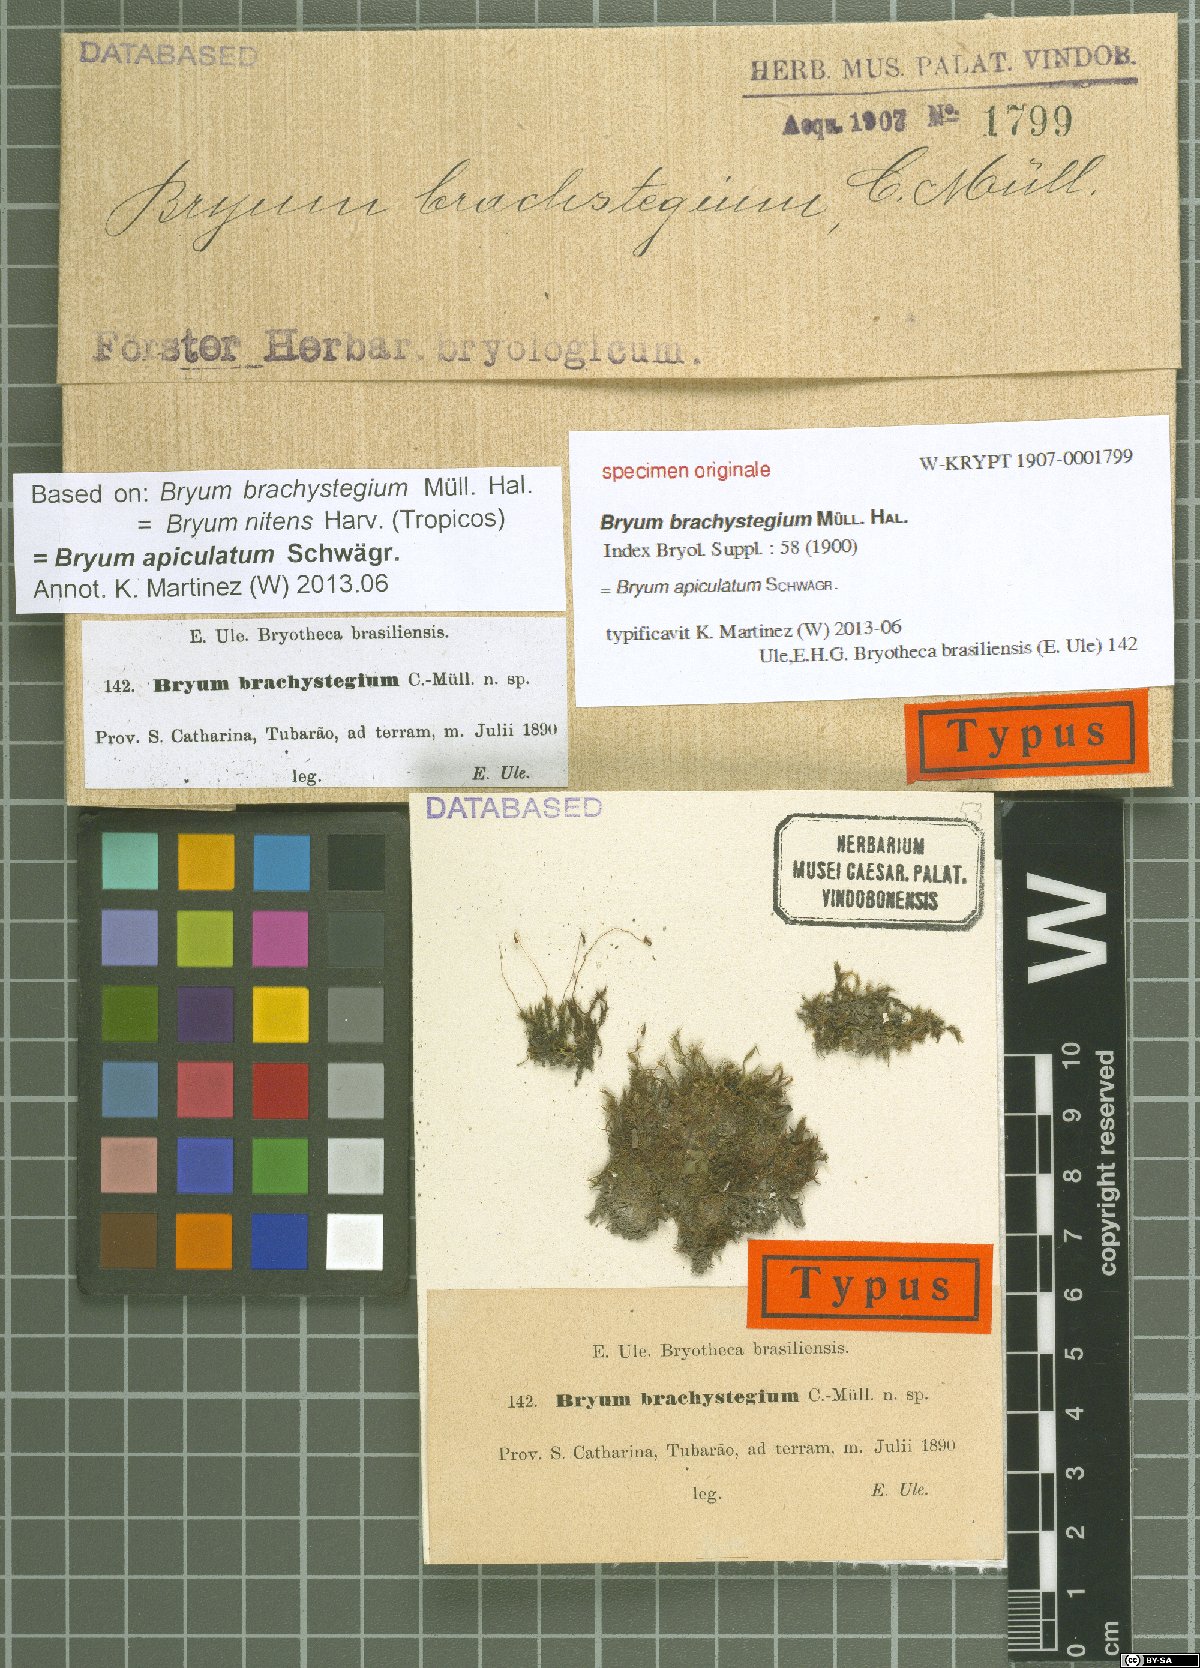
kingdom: Plantae
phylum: Bryophyta
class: Bryopsida
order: Bryales
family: Bryaceae
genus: Ptychostomum
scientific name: Ptychostomum calophyllum
